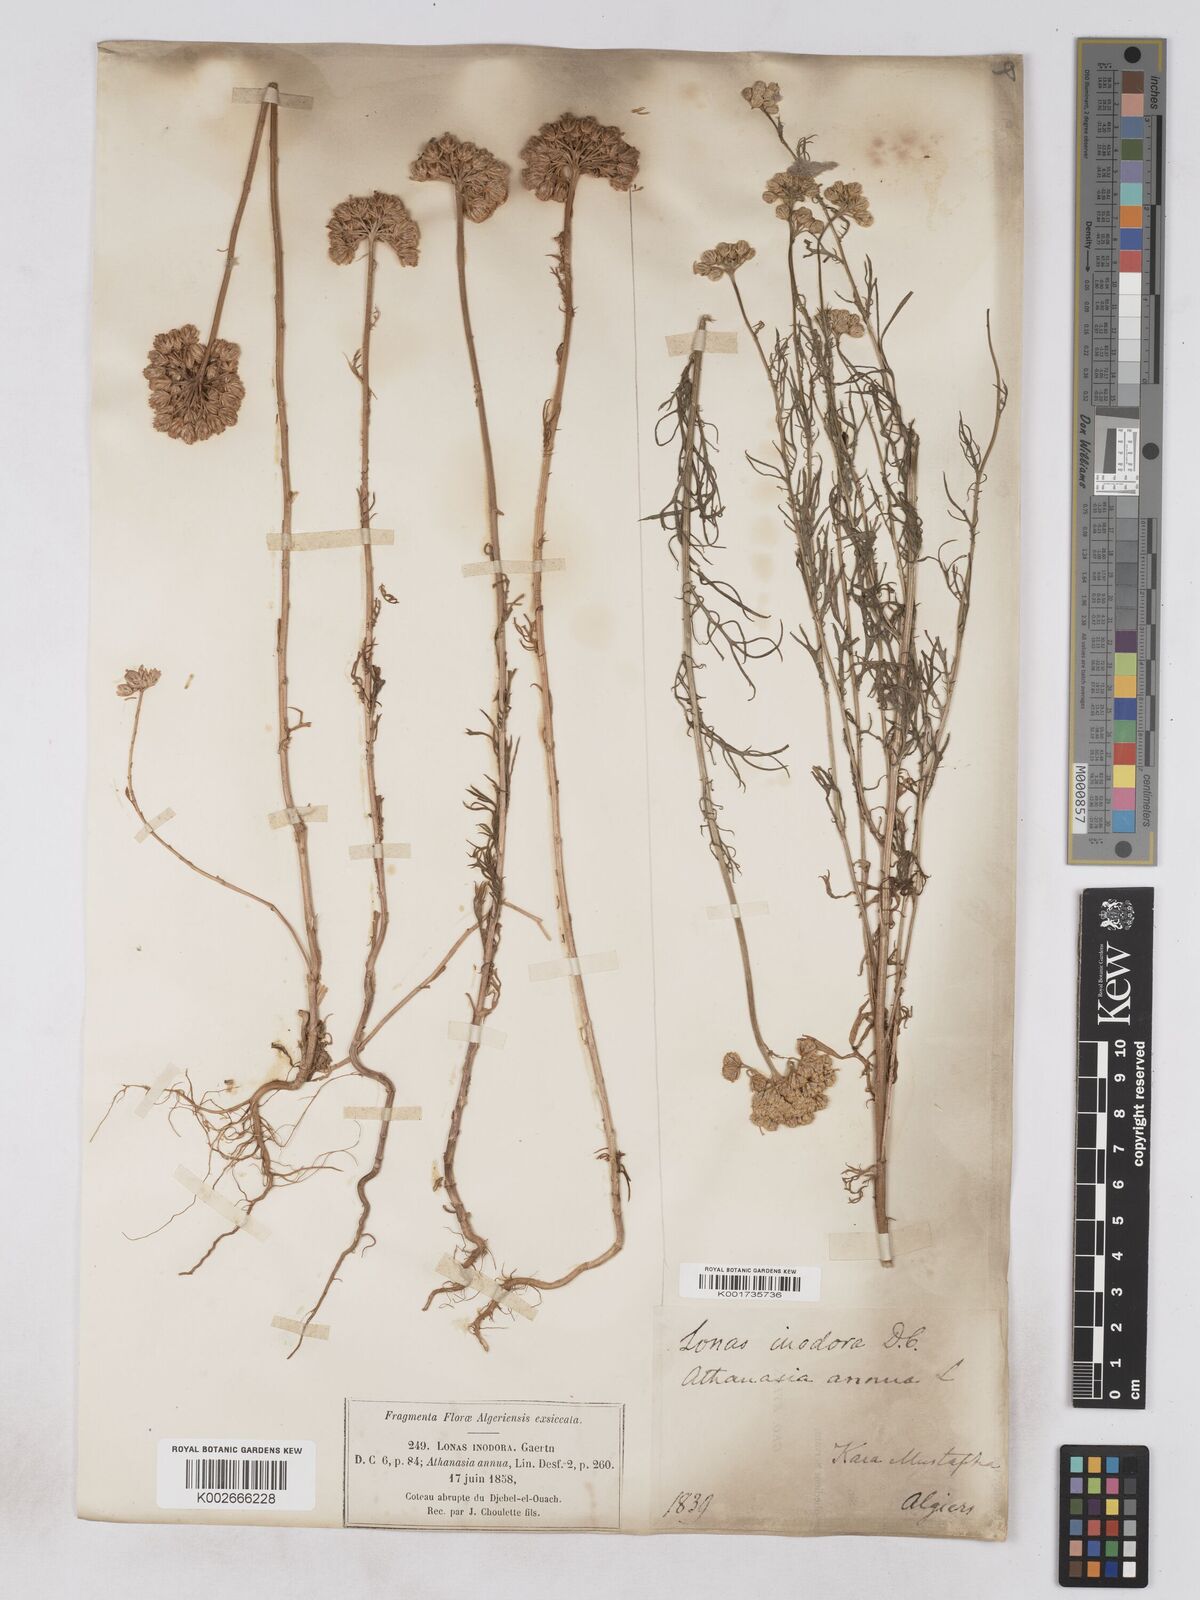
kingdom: Plantae
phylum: Tracheophyta
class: Magnoliopsida
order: Asterales
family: Asteraceae
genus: Lonas
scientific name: Lonas
